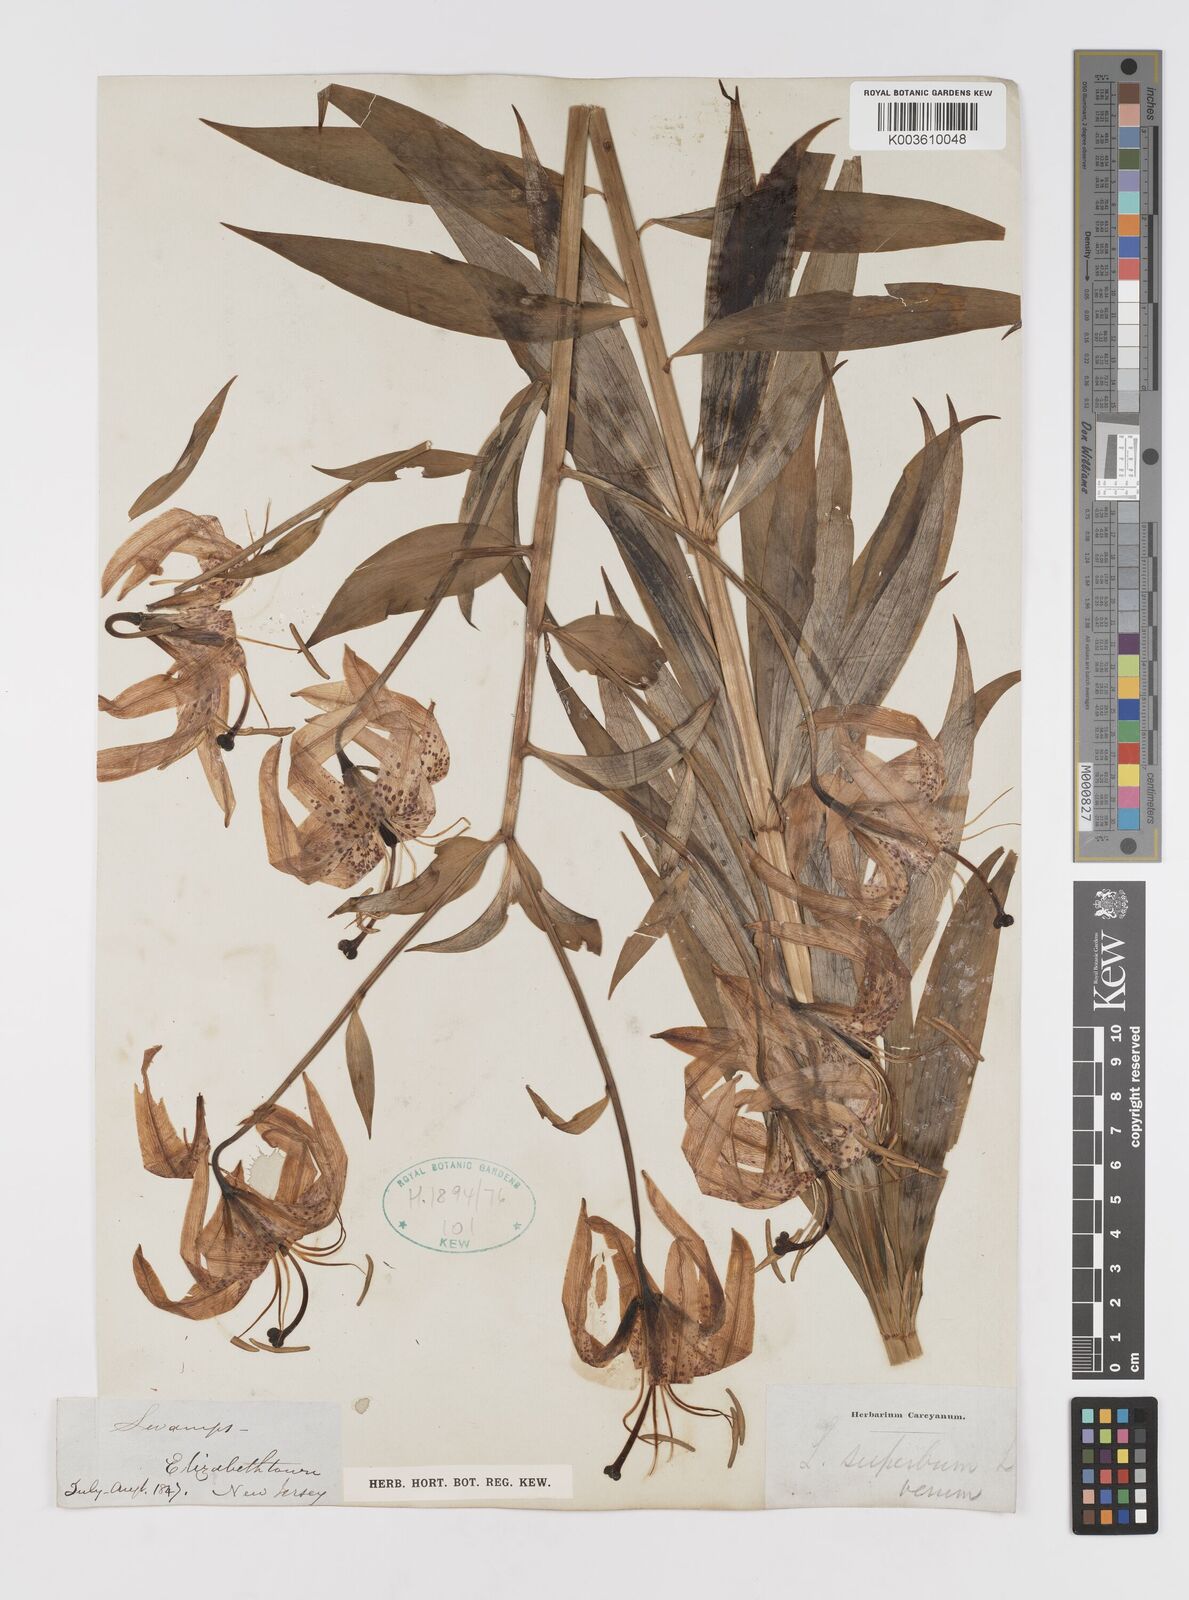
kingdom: Plantae
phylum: Tracheophyta
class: Liliopsida
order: Liliales
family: Liliaceae
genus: Lilium
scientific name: Lilium superbum
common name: American turk's-cap lily
